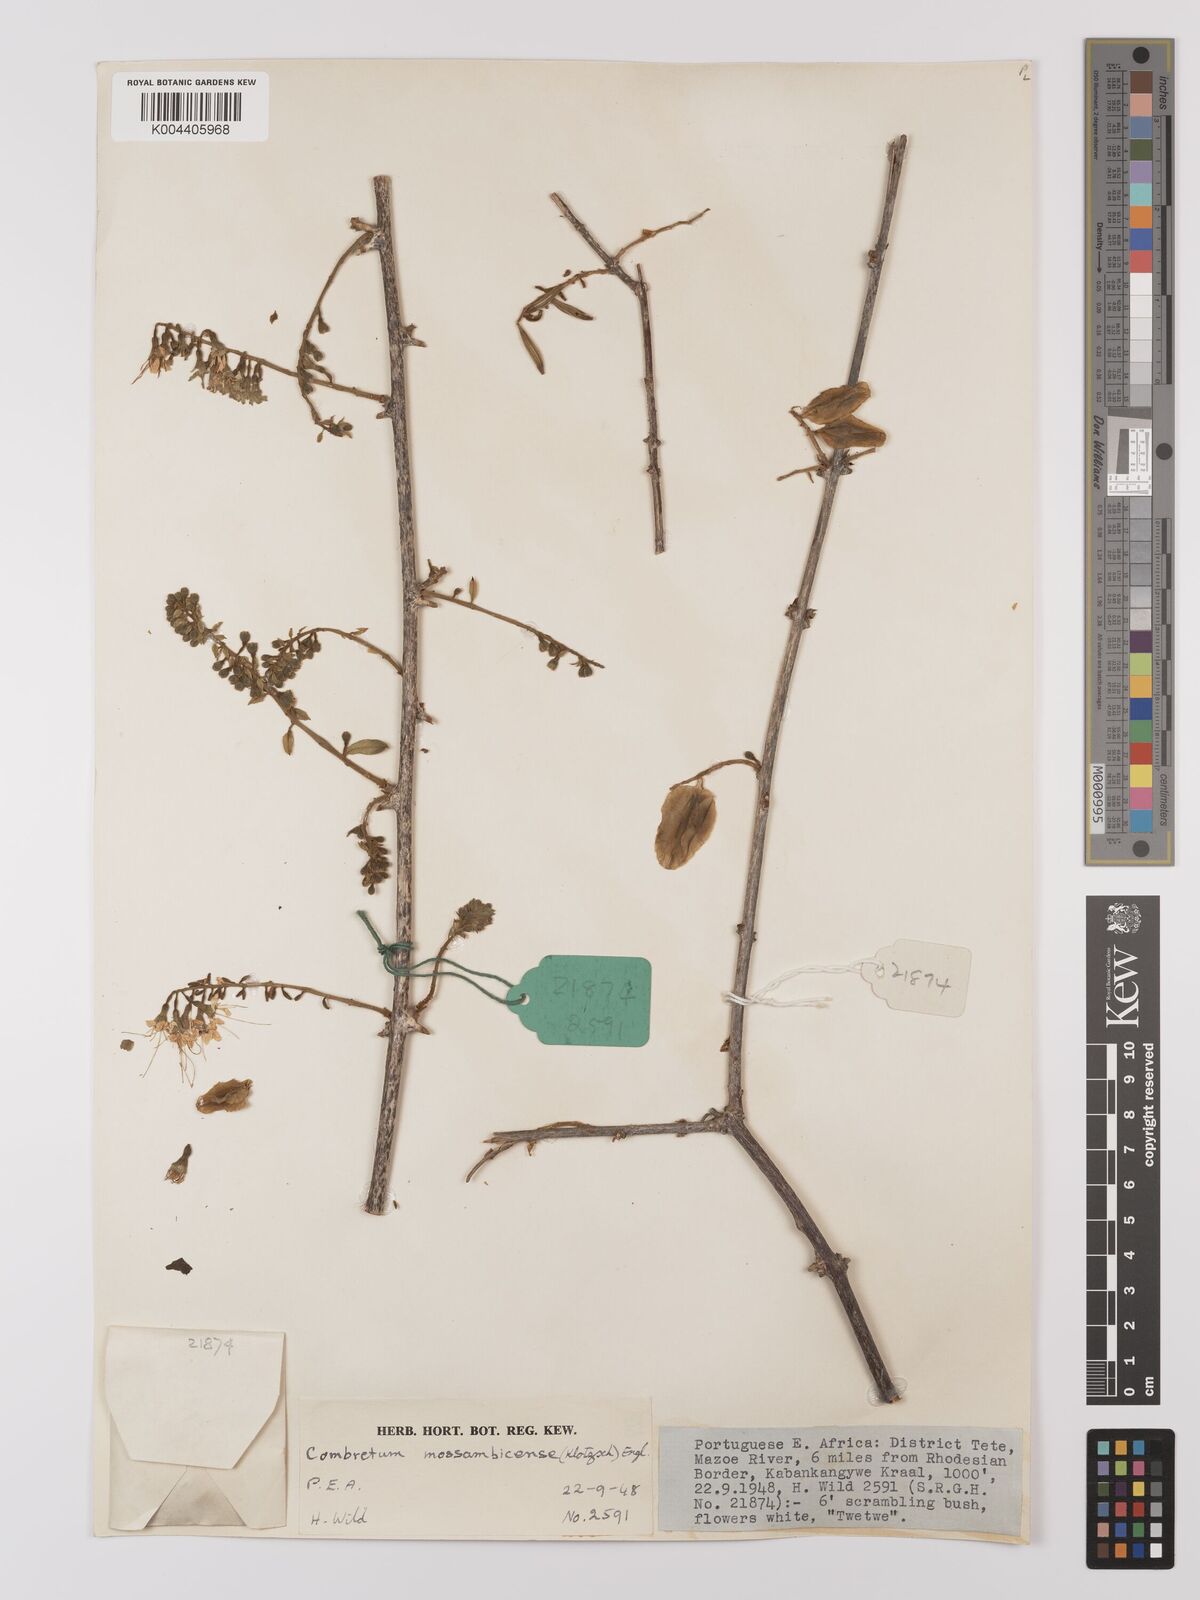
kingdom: Plantae
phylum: Tracheophyta
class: Magnoliopsida
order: Myrtales
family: Combretaceae
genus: Combretum
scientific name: Combretum mossambicense
